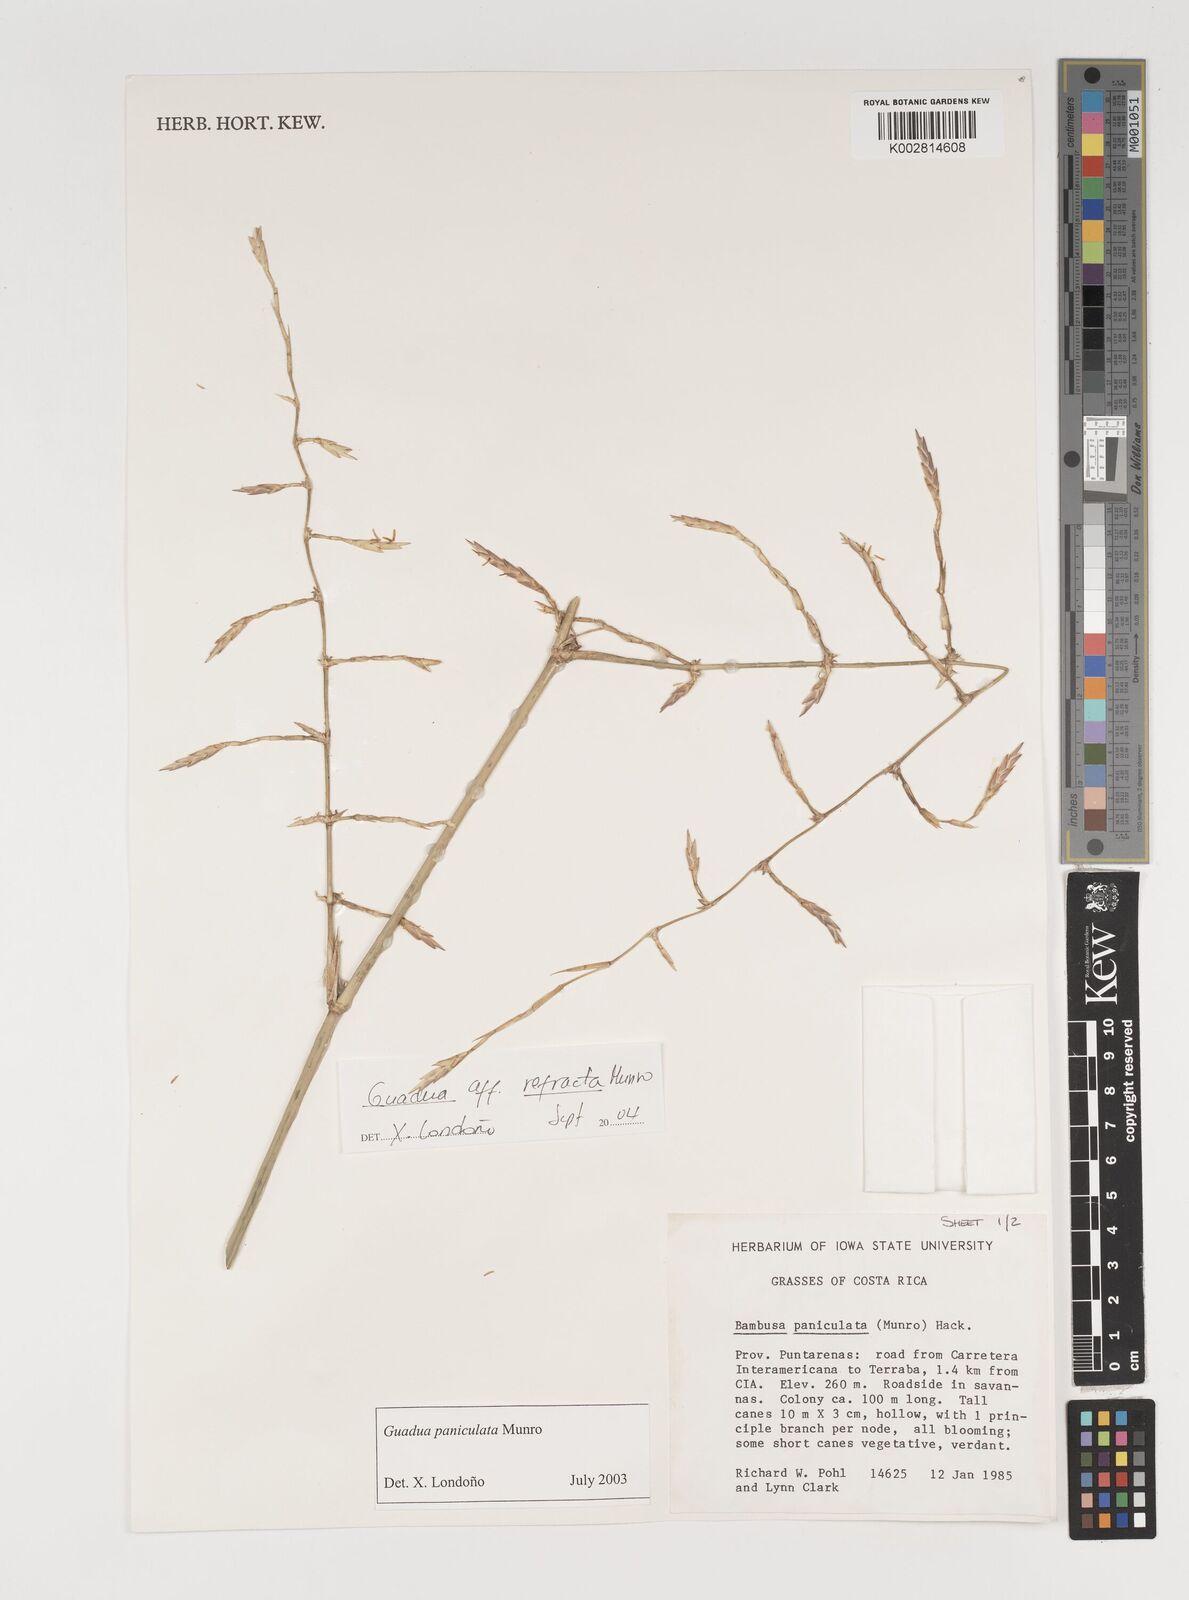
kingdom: Plantae
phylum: Tracheophyta
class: Liliopsida
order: Poales
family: Poaceae
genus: Guadua
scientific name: Guadua
